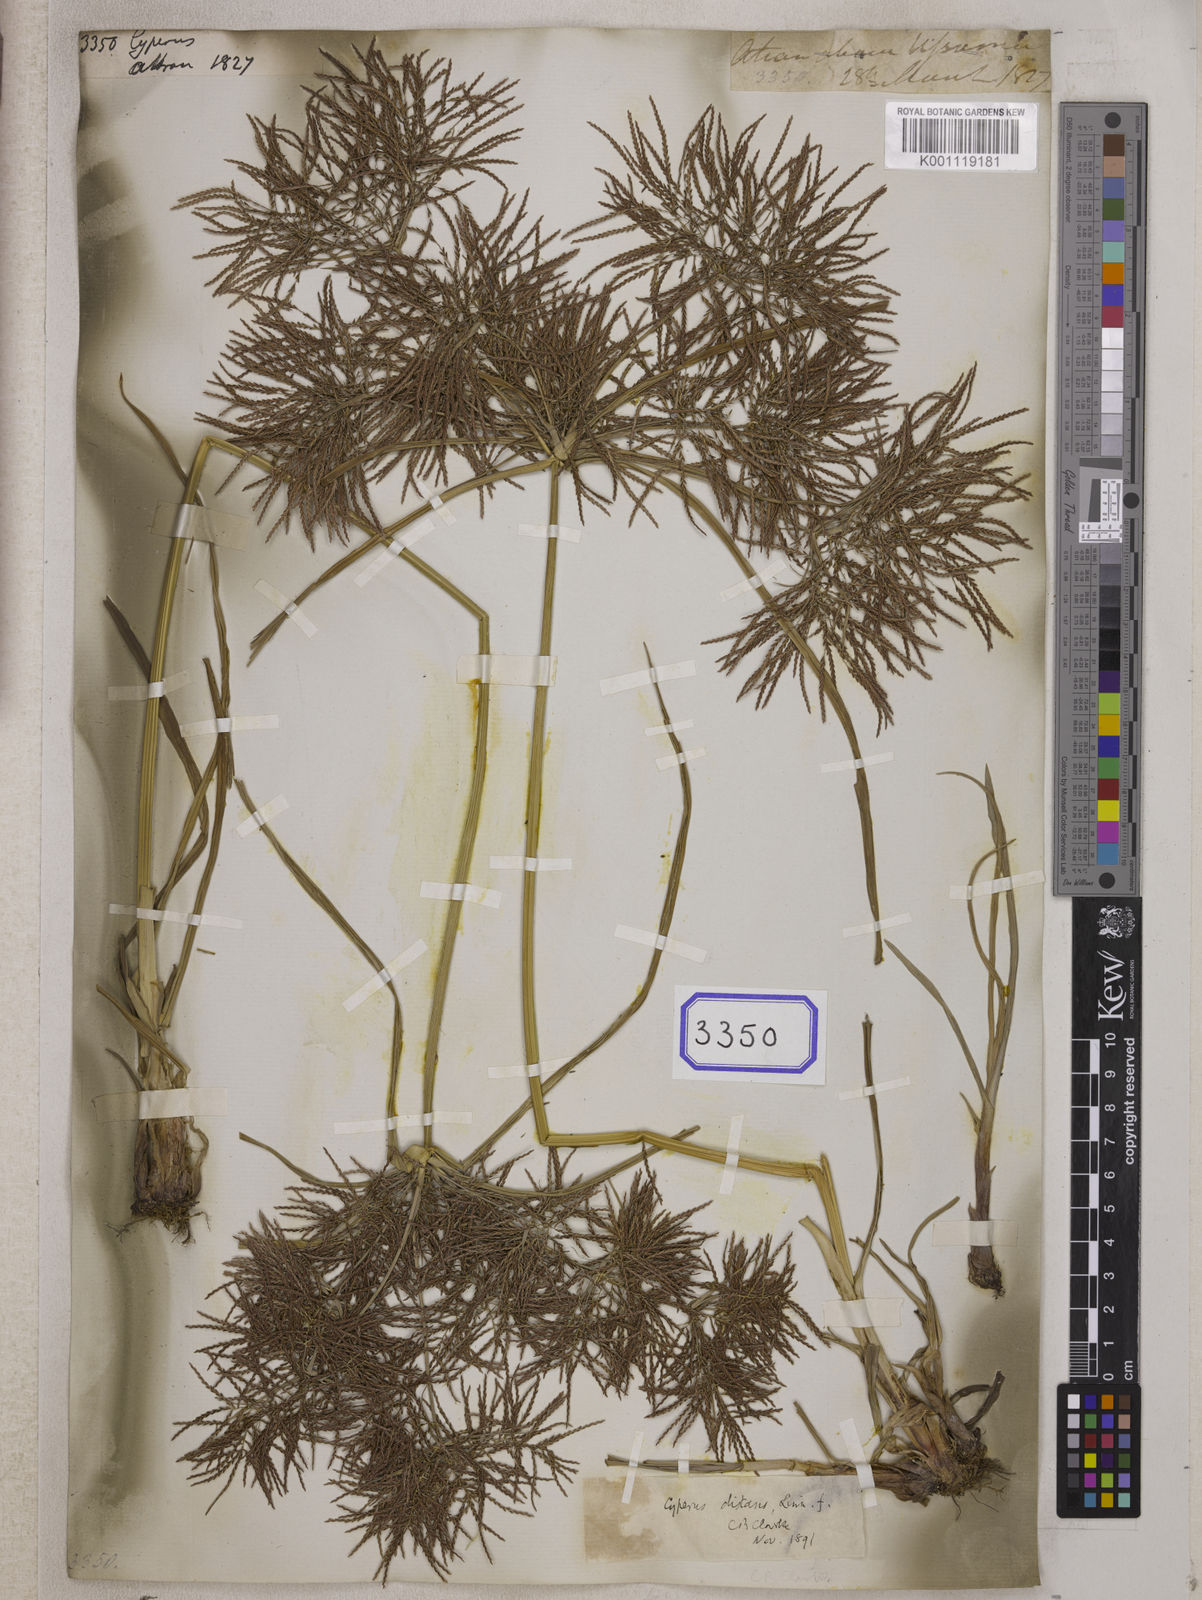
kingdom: Plantae
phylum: Tracheophyta
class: Liliopsida
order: Poales
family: Cyperaceae
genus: Cyperus
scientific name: Cyperus
